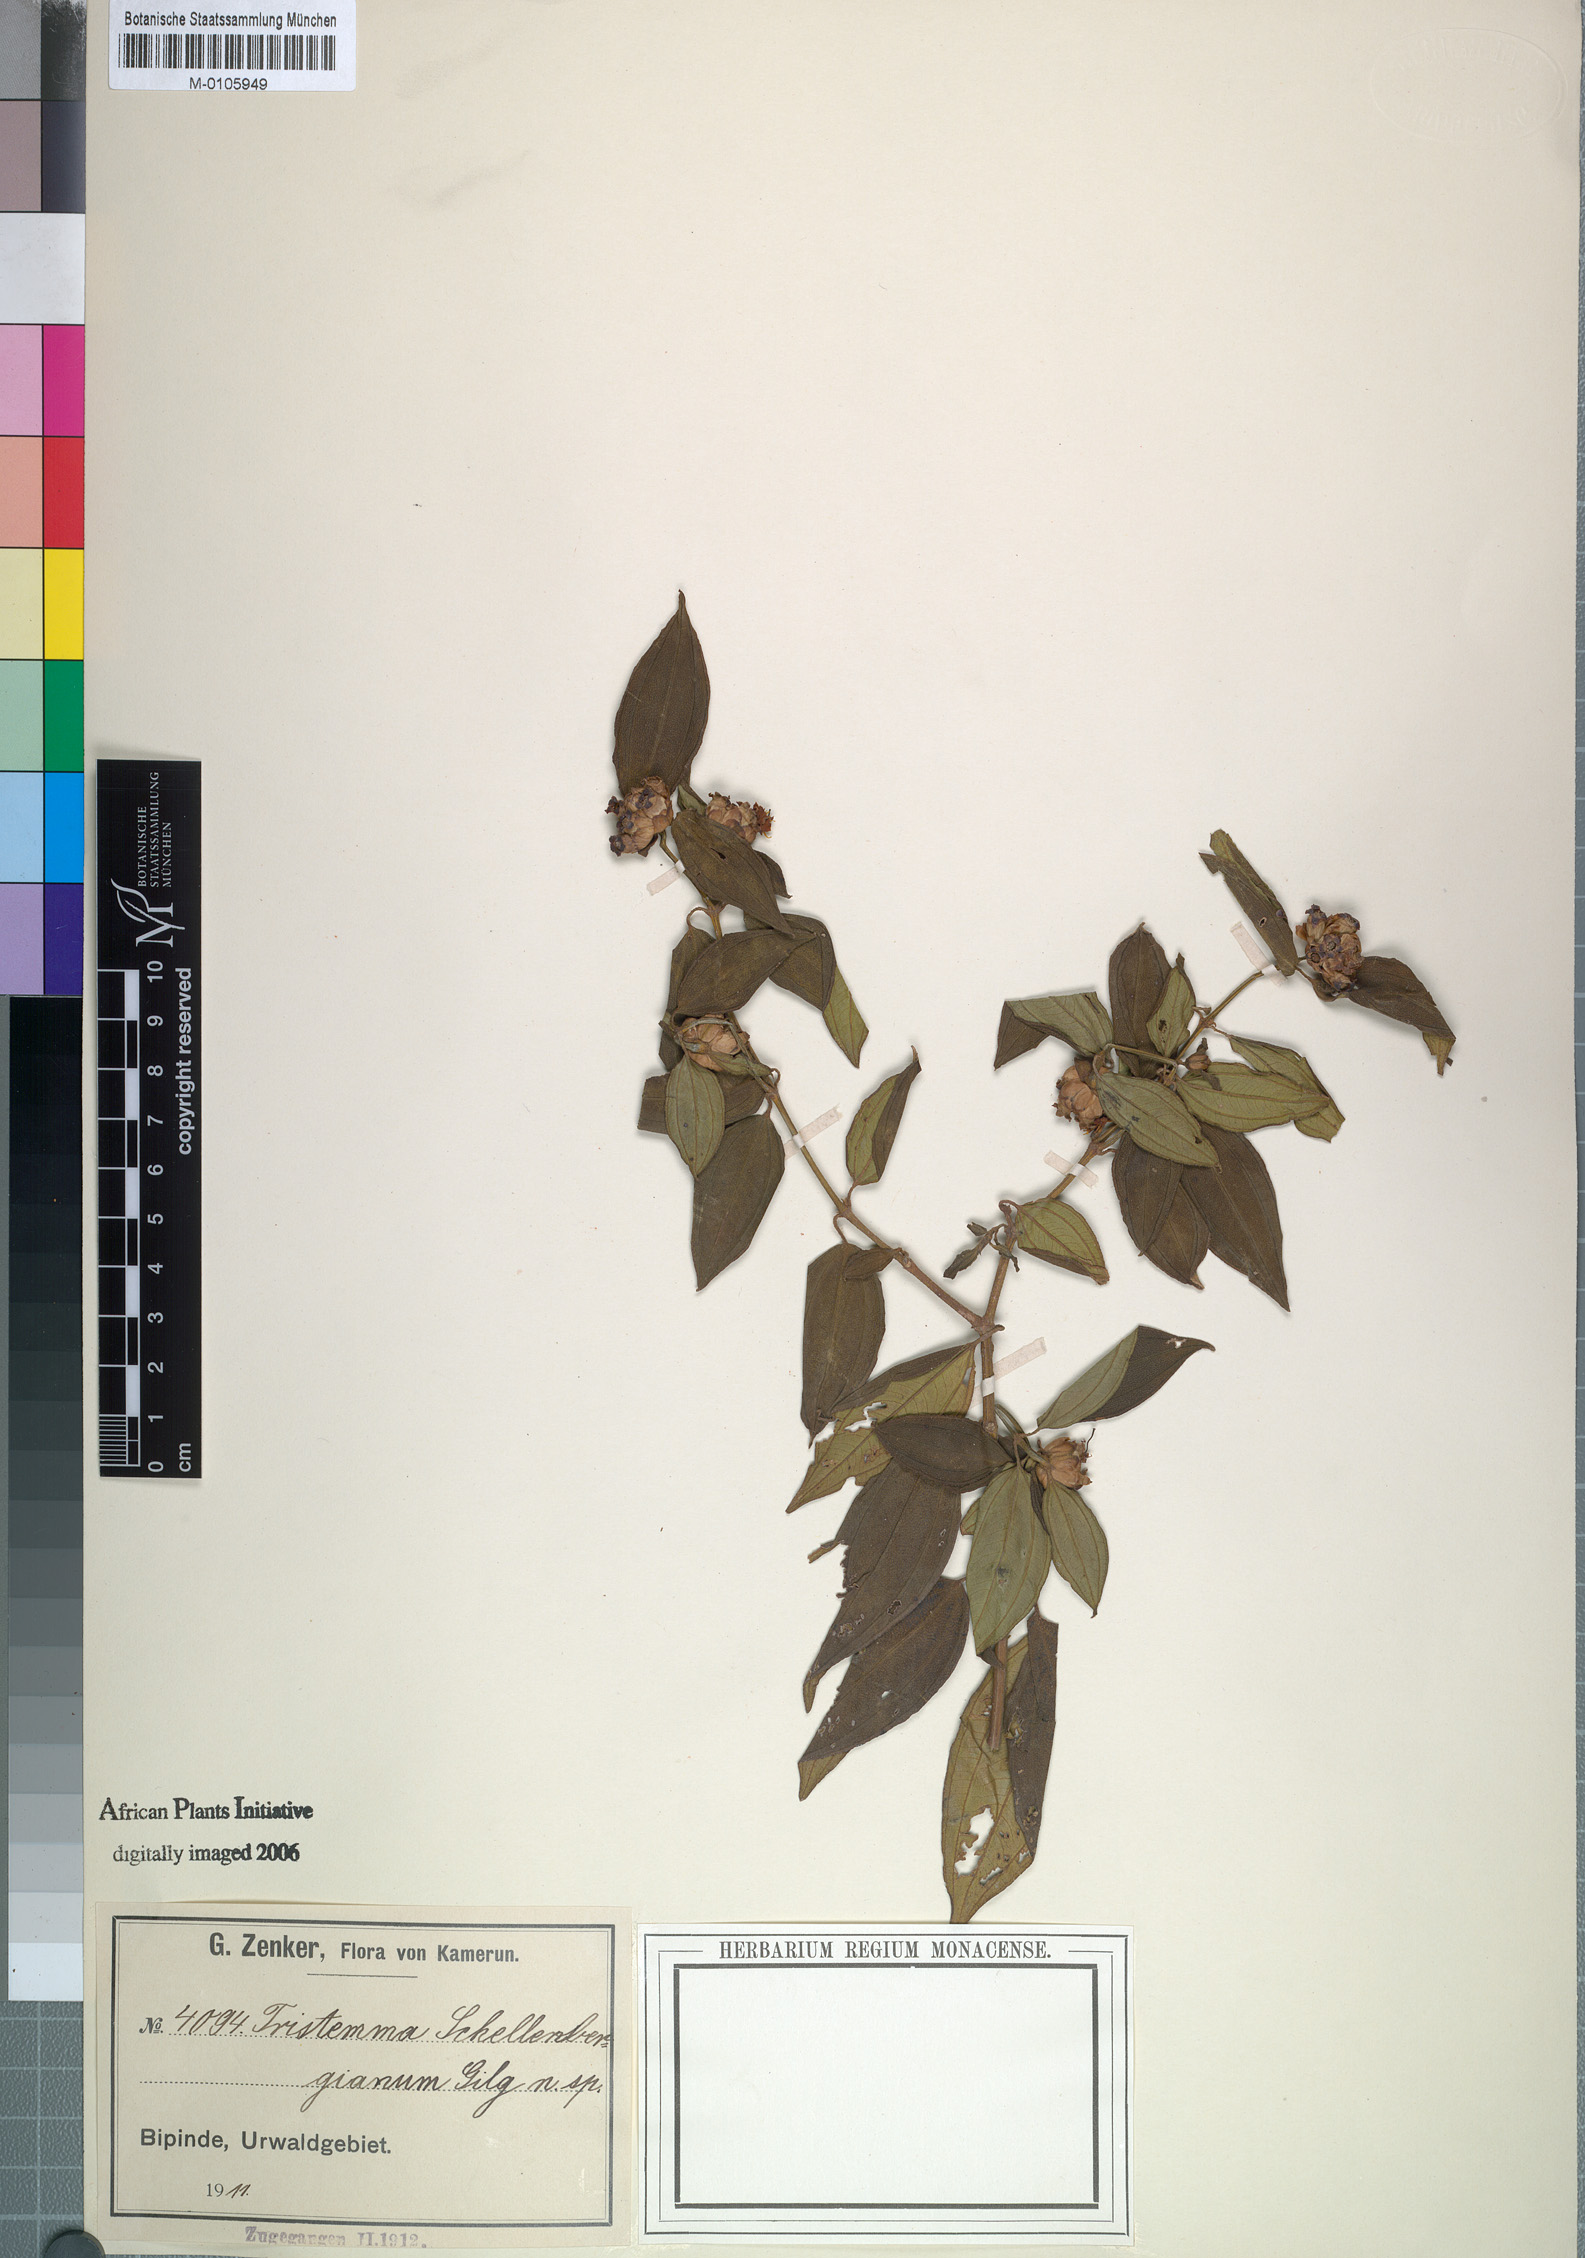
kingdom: Plantae
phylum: Tracheophyta
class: Magnoliopsida
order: Myrtales
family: Melastomataceae
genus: Tristemma
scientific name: Tristemma oreophilum
